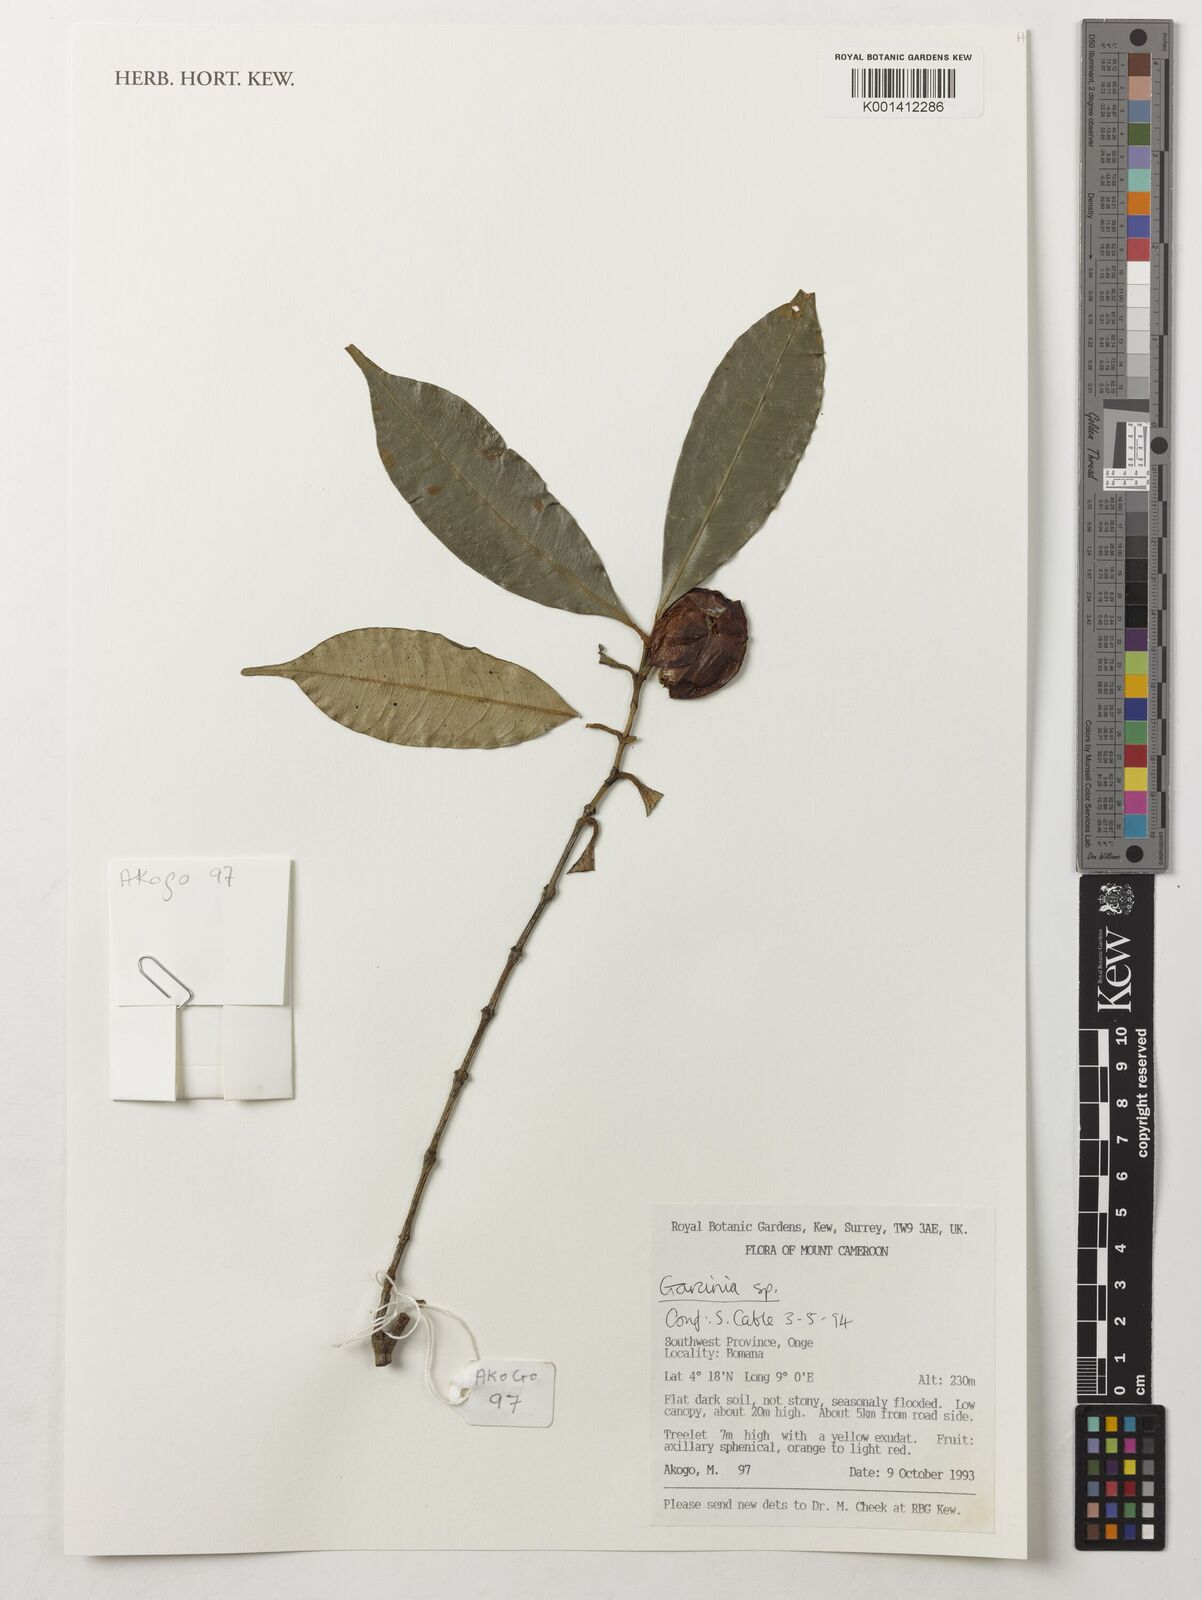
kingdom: Plantae
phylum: Tracheophyta
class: Magnoliopsida
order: Malpighiales
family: Clusiaceae
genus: Garcinia
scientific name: Garcinia
